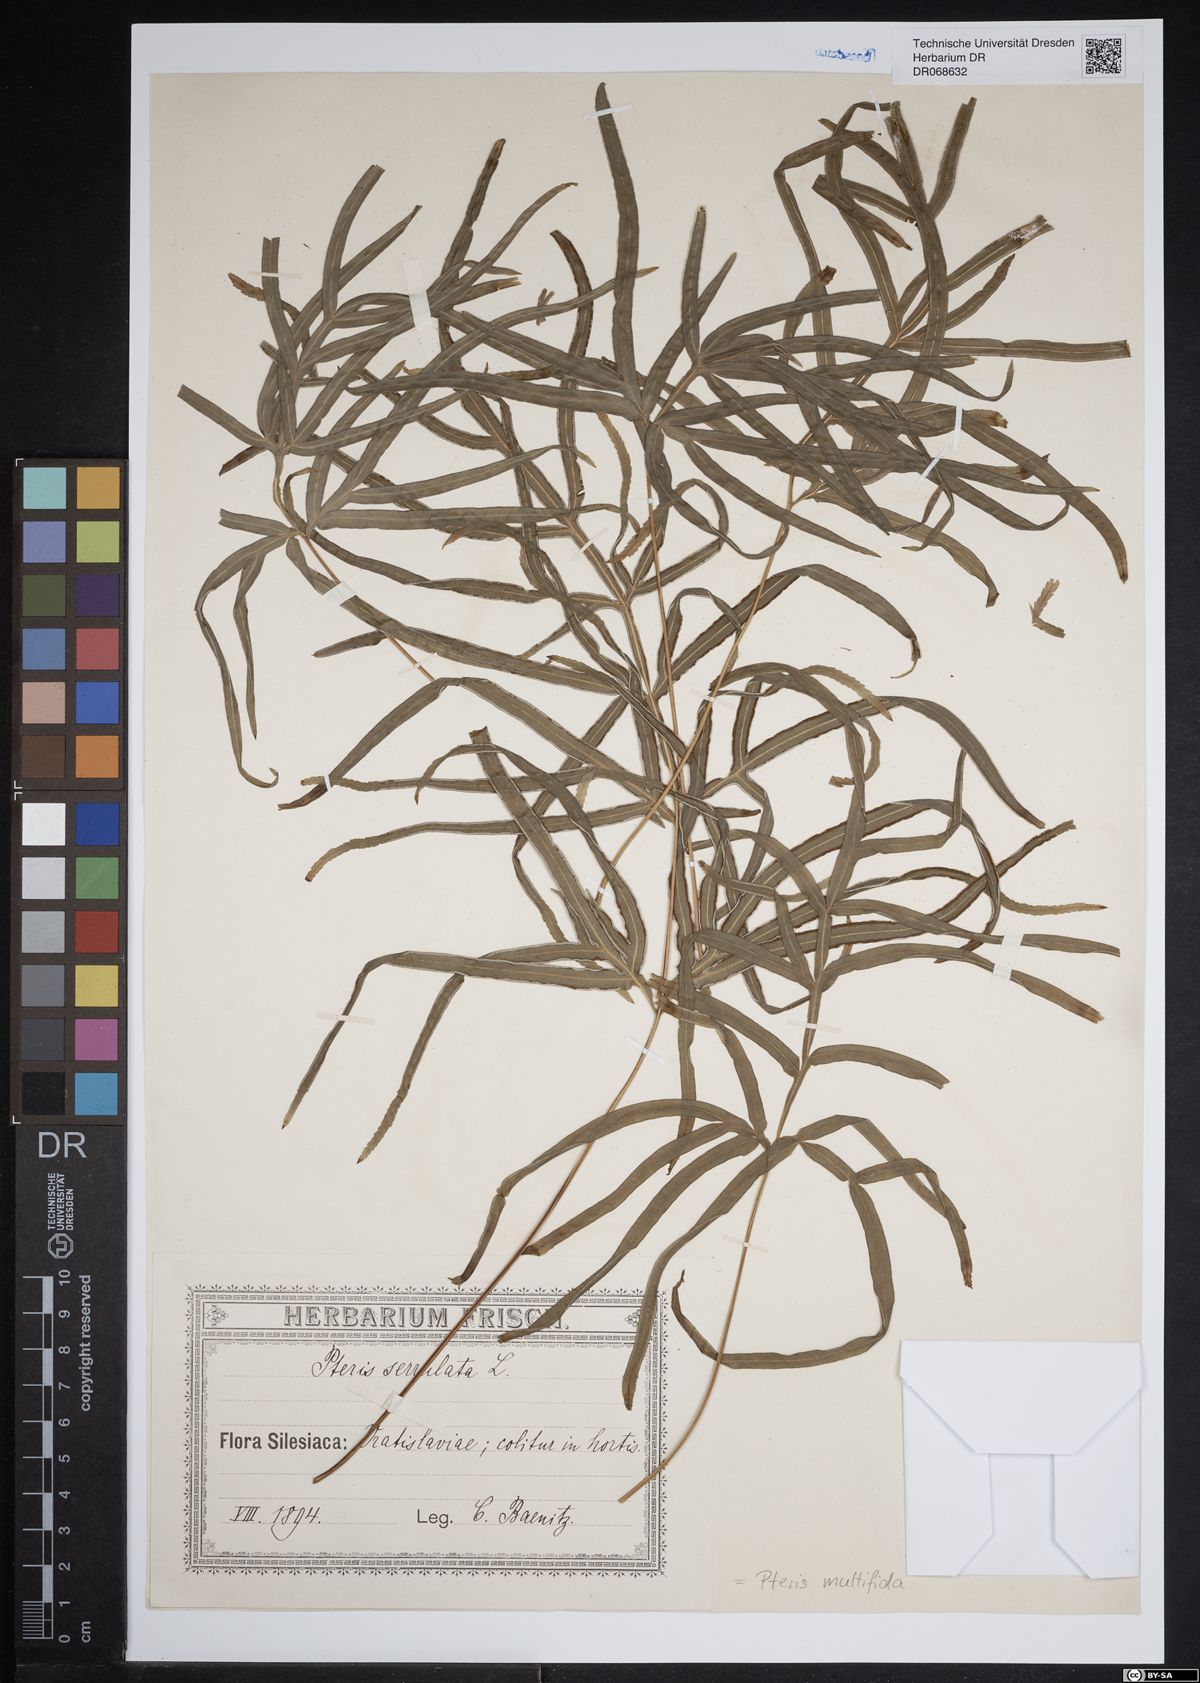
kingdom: Plantae
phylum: Tracheophyta
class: Polypodiopsida
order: Polypodiales
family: Pteridaceae
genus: Pteris
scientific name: Pteris multifida
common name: Spider brake
